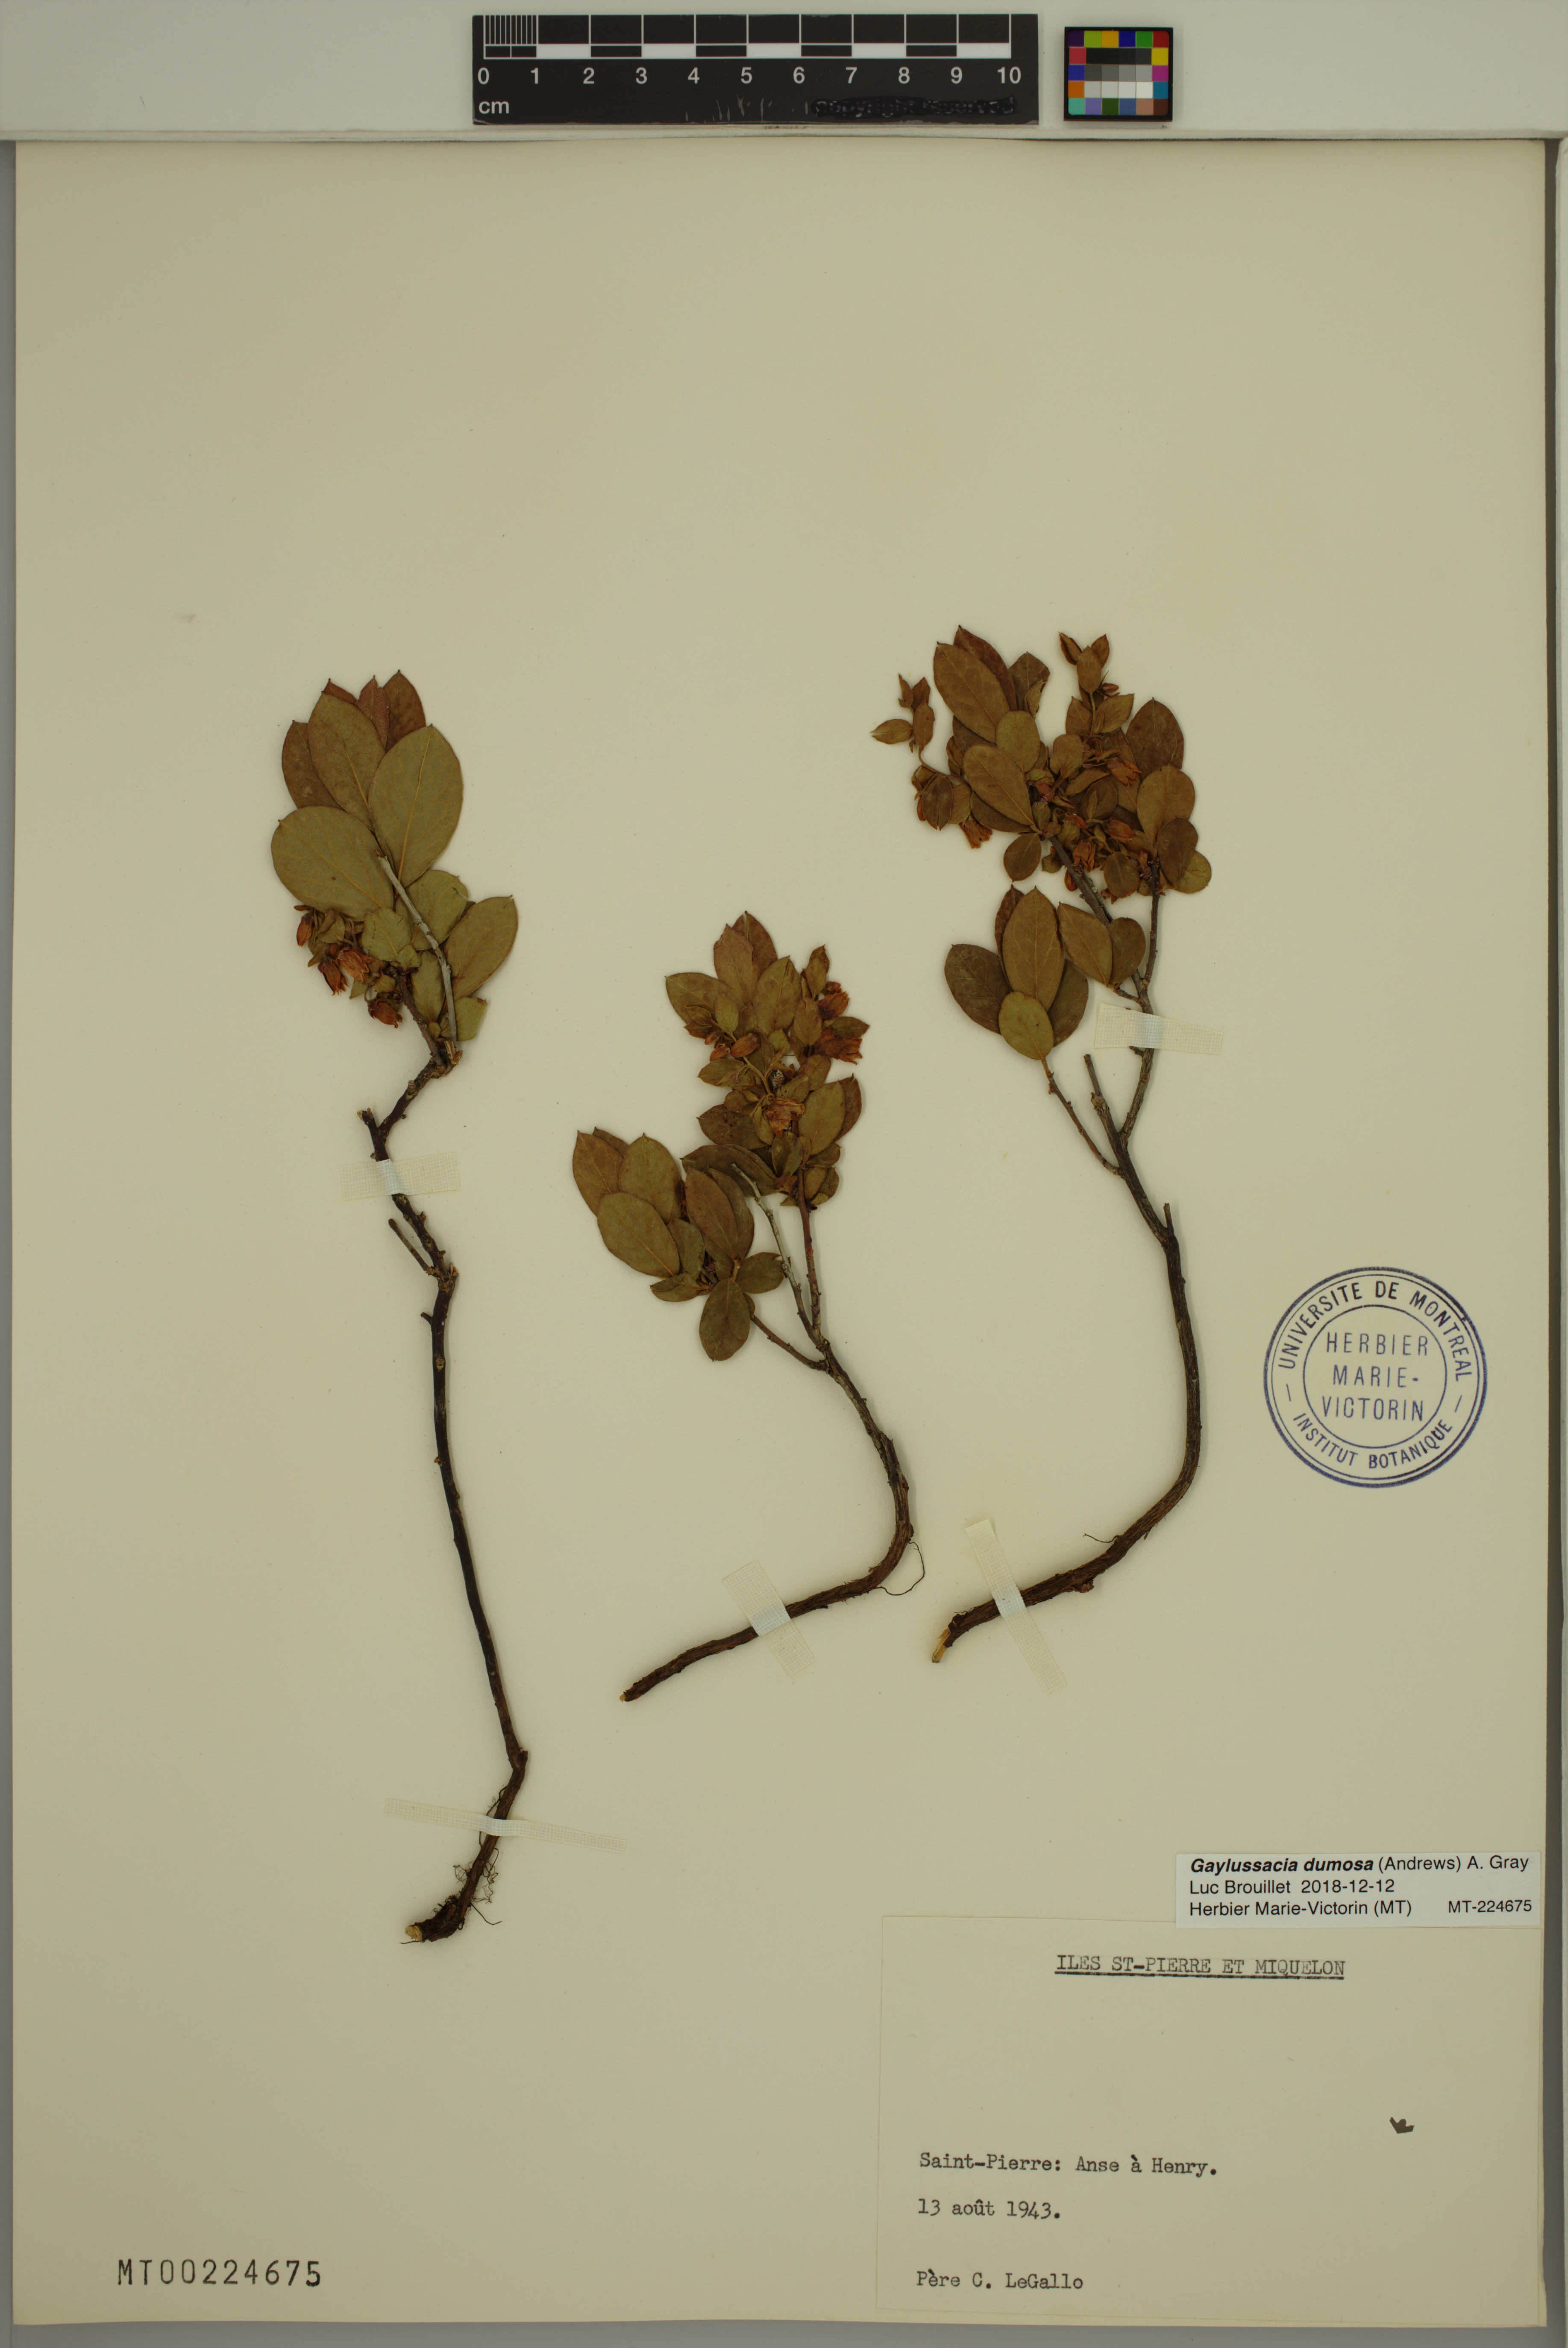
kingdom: Plantae
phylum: Tracheophyta
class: Magnoliopsida
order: Ericales
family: Ericaceae
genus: Gaylussacia
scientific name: Gaylussacia dumosa
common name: Dwarf huckleberry
